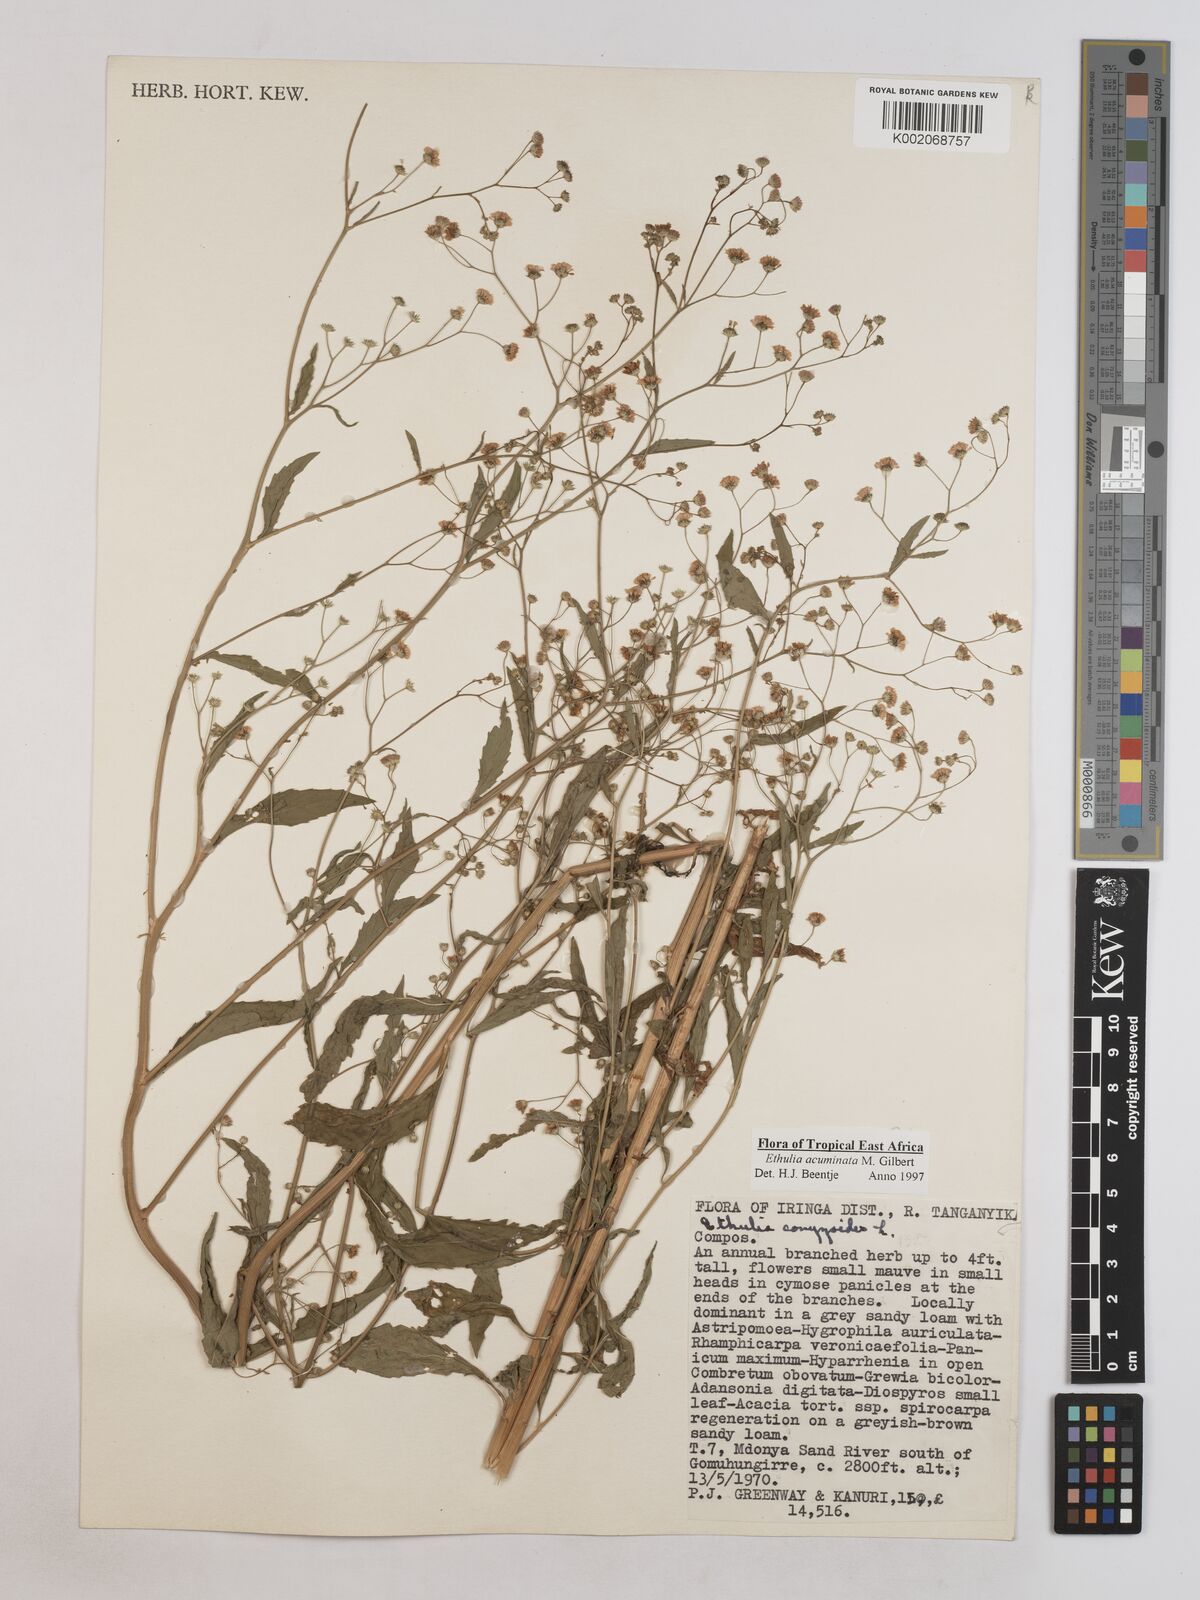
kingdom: Plantae
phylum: Tracheophyta
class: Magnoliopsida
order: Asterales
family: Asteraceae
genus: Ethulia
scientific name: Ethulia acuminata
